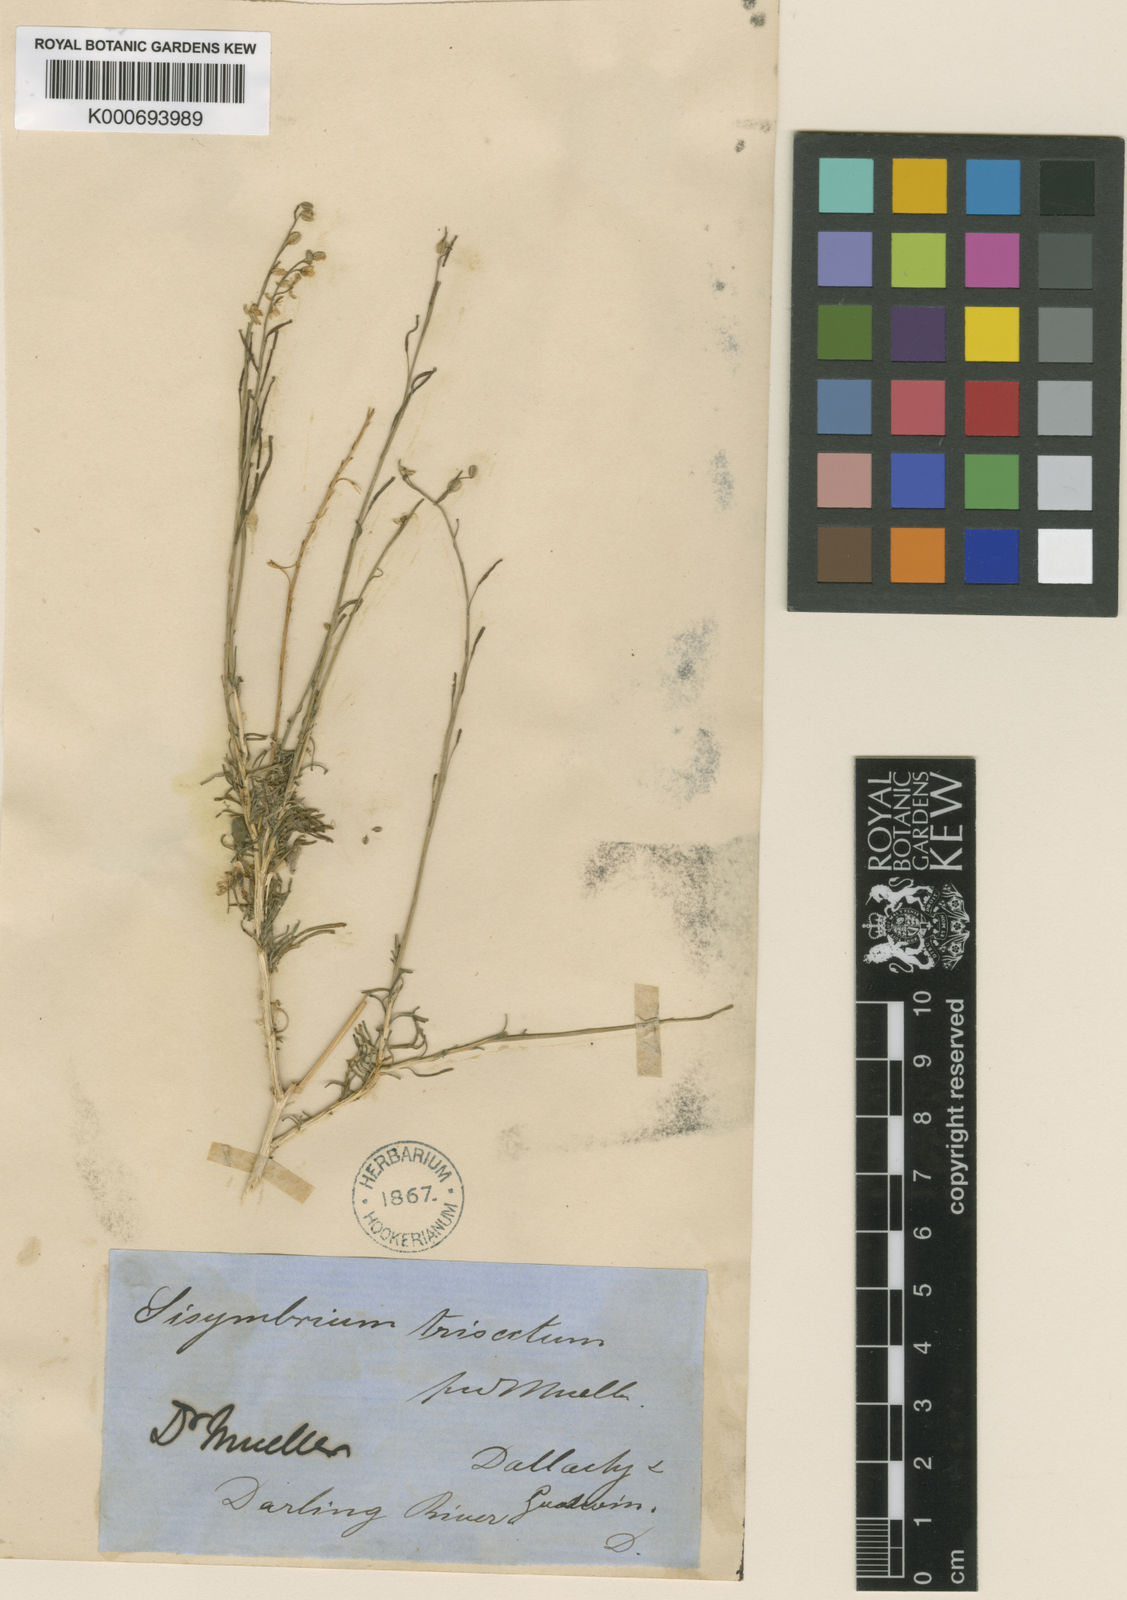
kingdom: Plantae
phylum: Tracheophyta
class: Magnoliopsida
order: Brassicales
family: Brassicaceae
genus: Arabidella
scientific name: Arabidella trisecta
